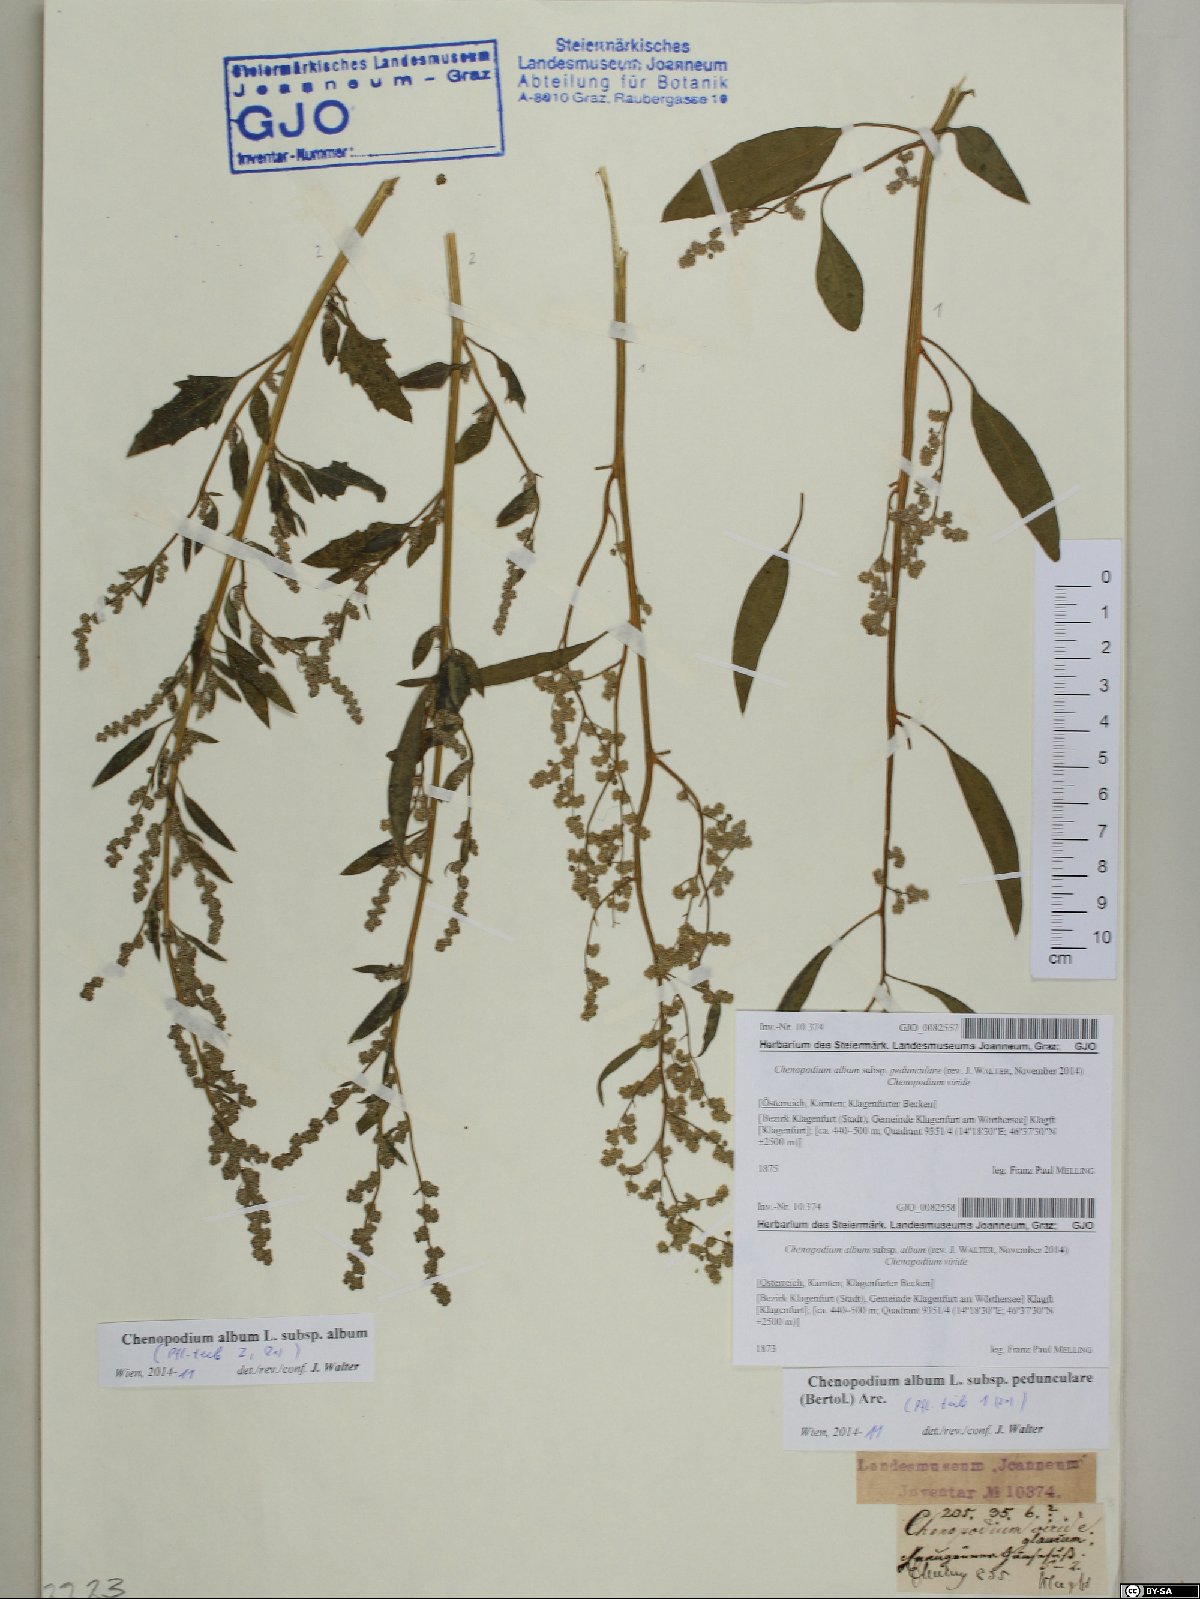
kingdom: Plantae
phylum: Tracheophyta
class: Magnoliopsida
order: Caryophyllales
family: Amaranthaceae
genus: Chenopodium
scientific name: Chenopodium album
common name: Fat-hen
